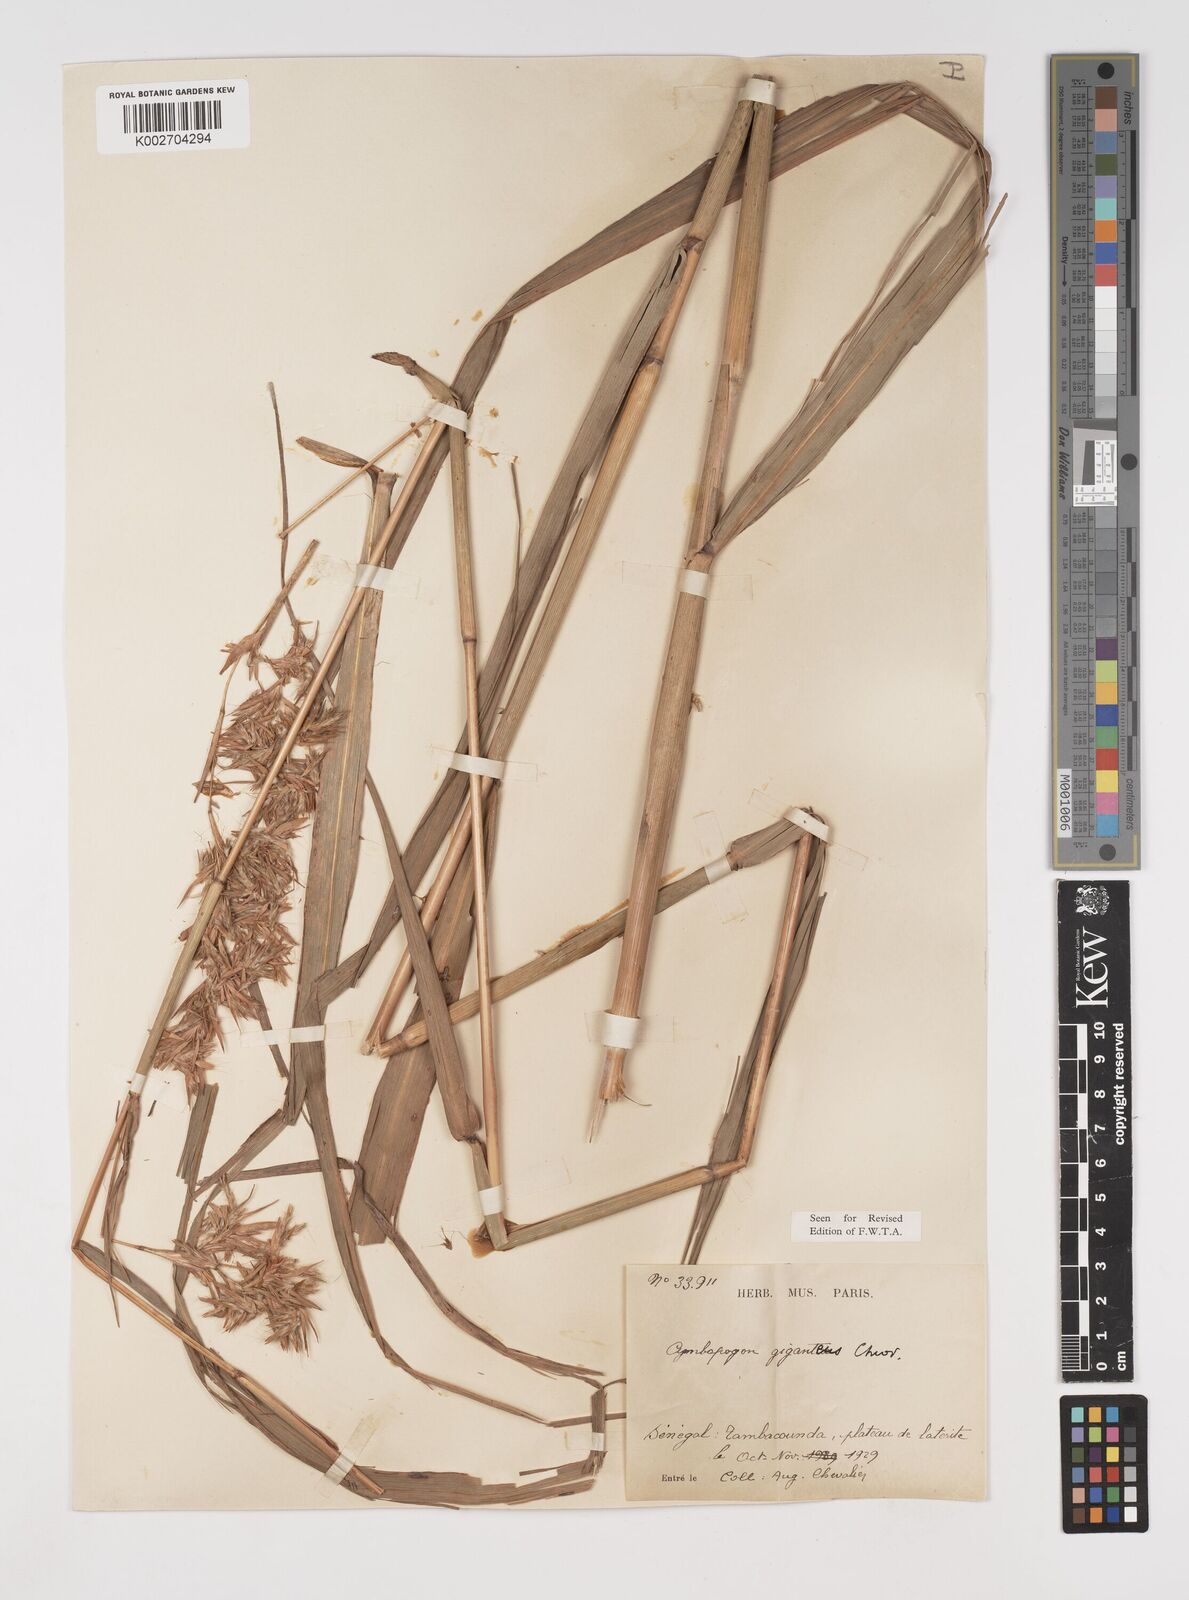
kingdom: Plantae
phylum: Tracheophyta
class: Liliopsida
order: Poales
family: Poaceae
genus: Cymbopogon
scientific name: Cymbopogon giganteus
